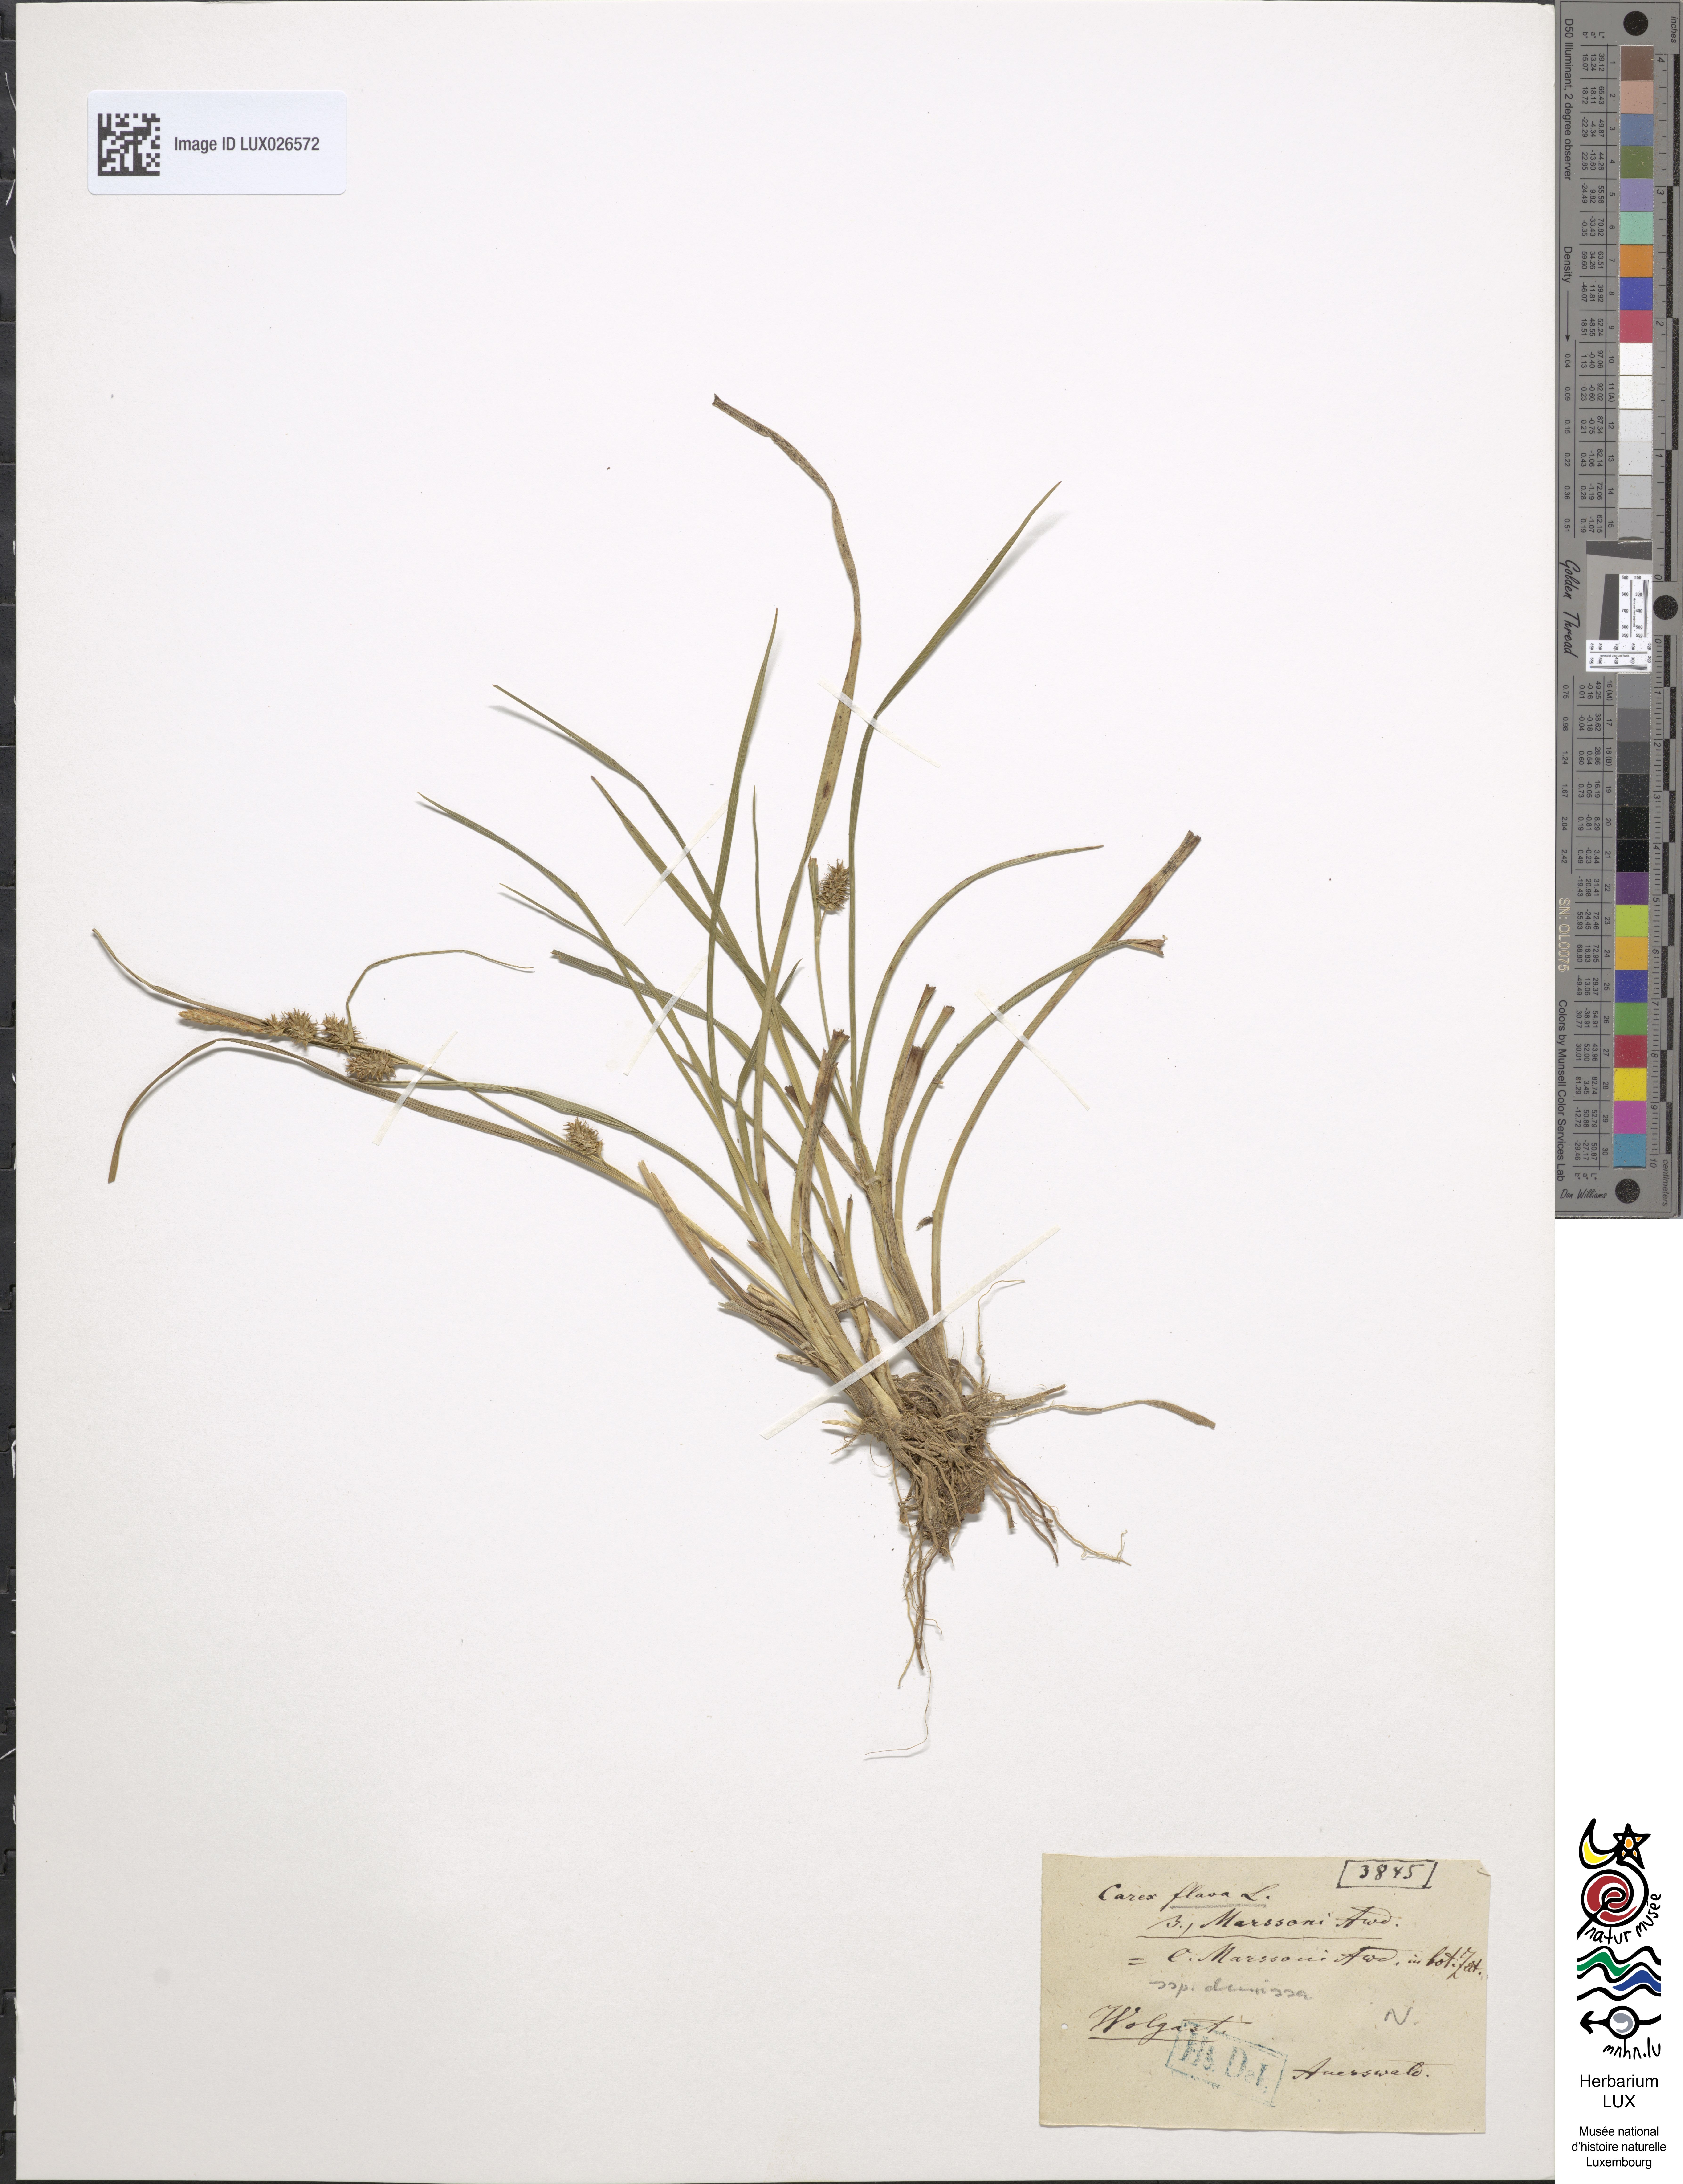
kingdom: Plantae
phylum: Tracheophyta
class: Liliopsida
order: Poales
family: Cyperaceae
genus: Carex
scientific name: Carex demissa
